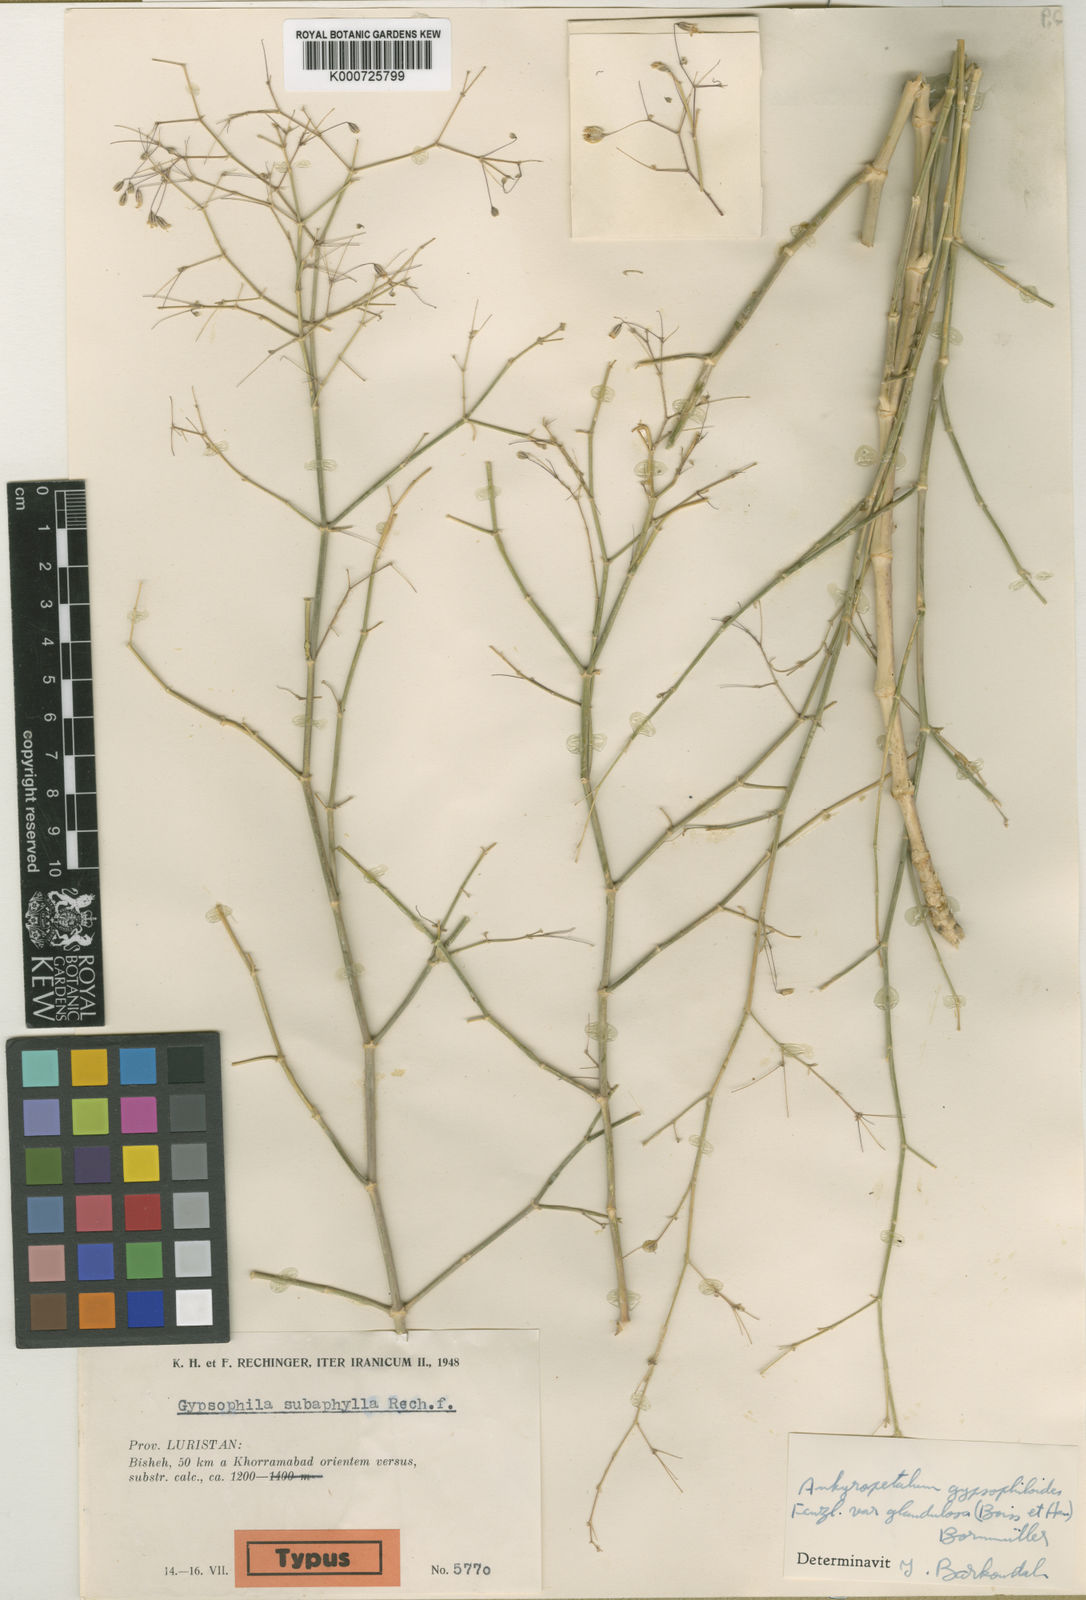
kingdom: Plantae
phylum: Tracheophyta
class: Magnoliopsida
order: Caryophyllales
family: Caryophyllaceae
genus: Mesostemma
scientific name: Mesostemma gypsophiloides
